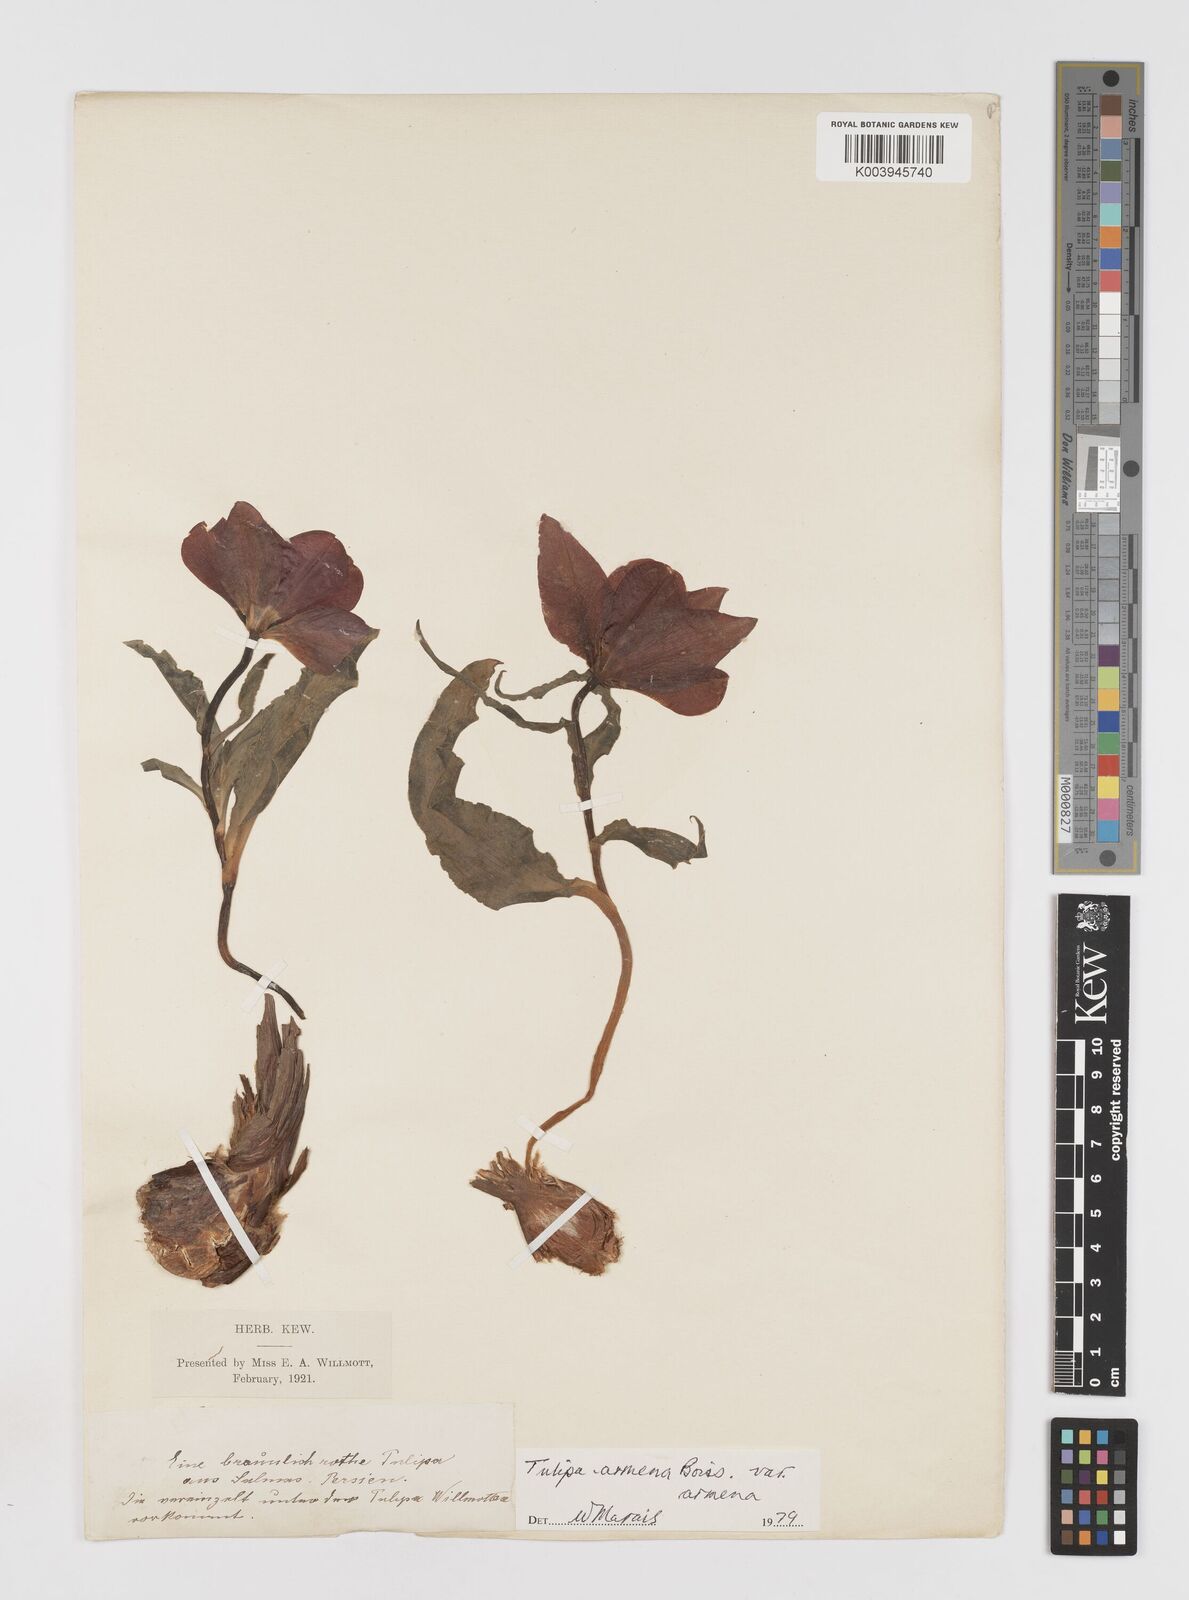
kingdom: Plantae
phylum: Tracheophyta
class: Liliopsida
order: Liliales
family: Liliaceae
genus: Tulipa
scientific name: Tulipa armena
